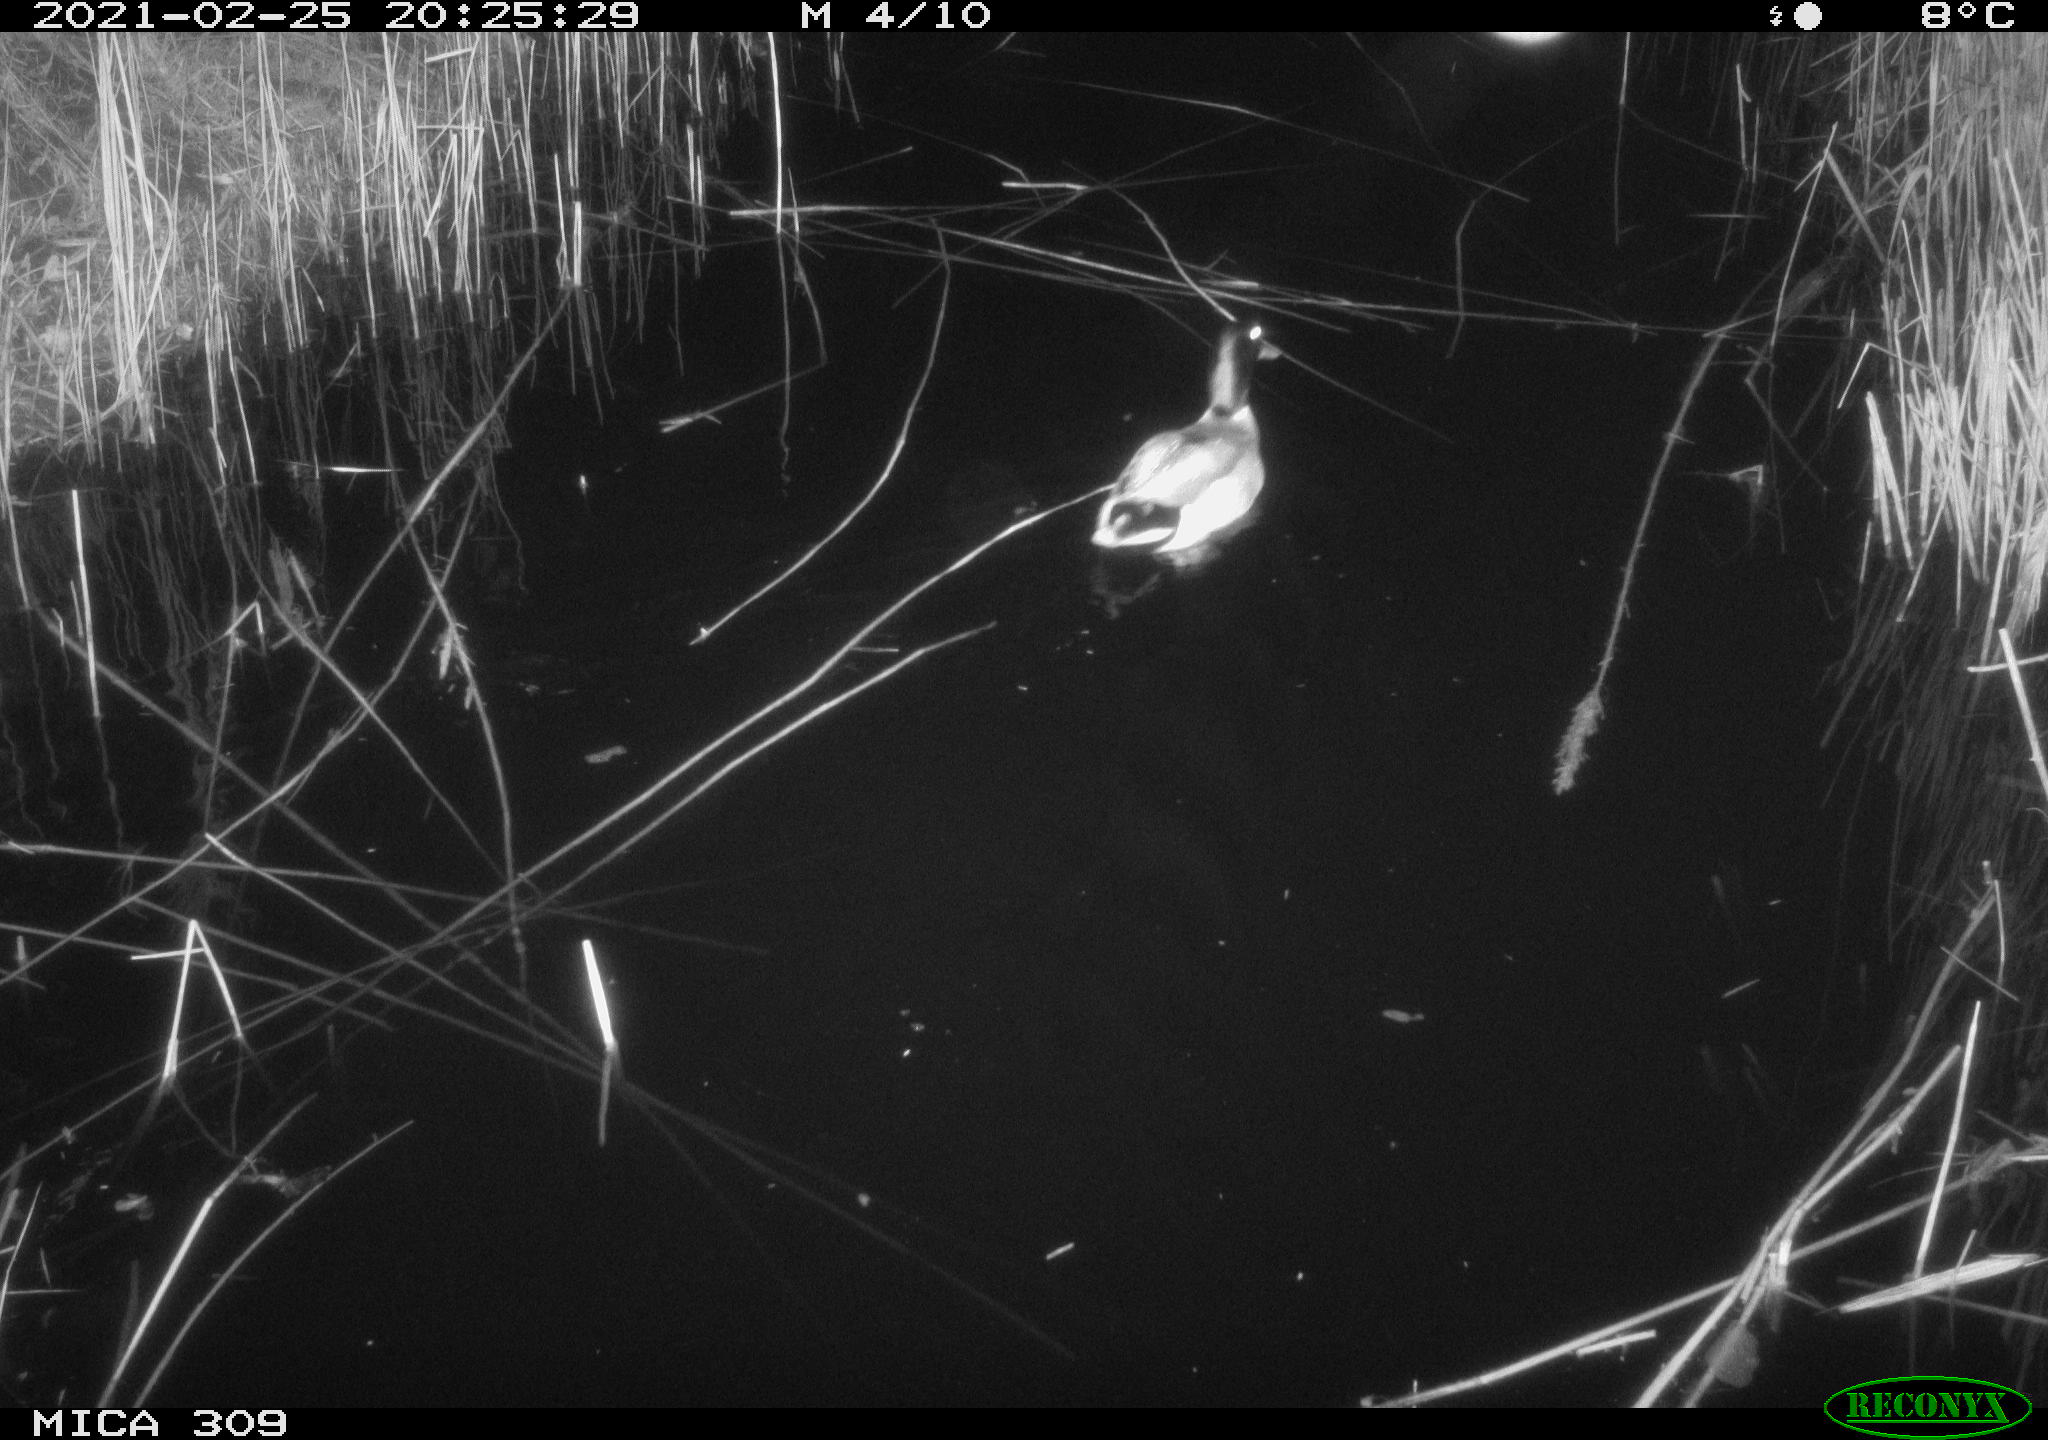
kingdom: Animalia
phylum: Chordata
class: Aves
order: Anseriformes
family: Anatidae
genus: Anas
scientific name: Anas platyrhynchos
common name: Mallard
